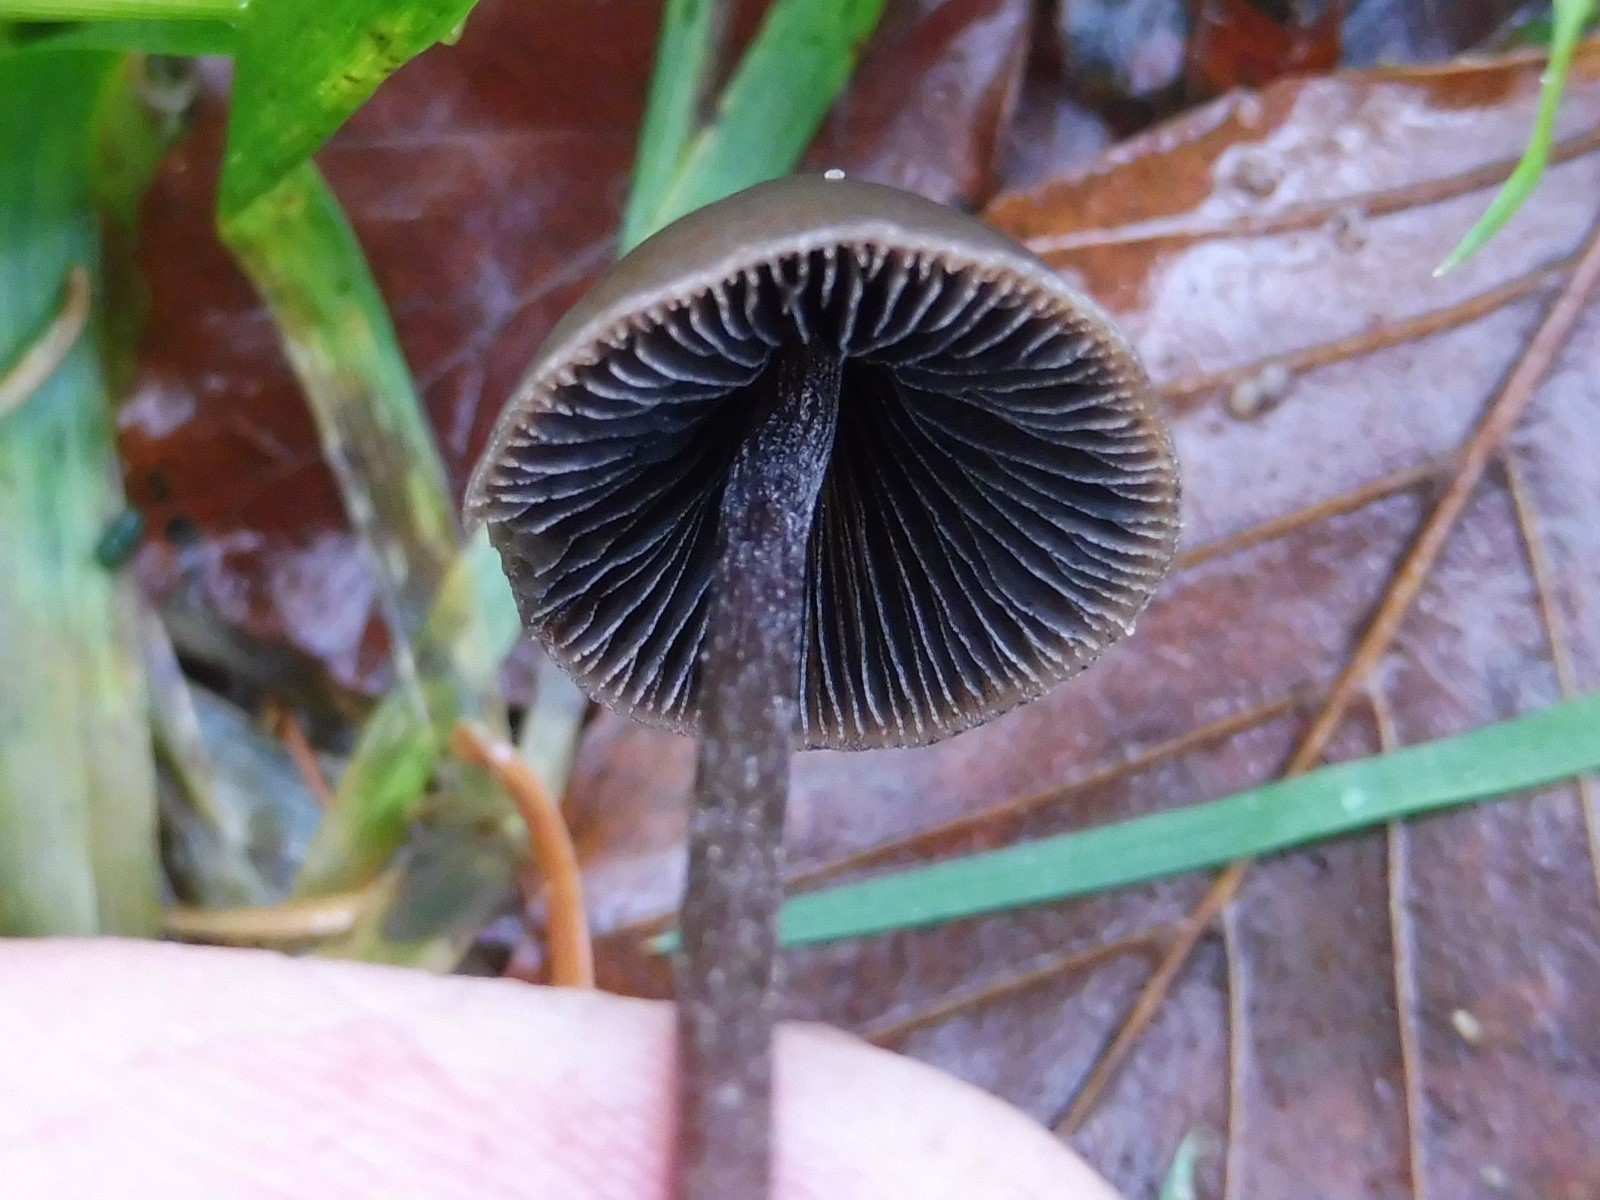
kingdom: Fungi
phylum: Basidiomycota
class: Agaricomycetes
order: Agaricales
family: Bolbitiaceae
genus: Panaeolus
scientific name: Panaeolus acuminatus
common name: høj glanshat
